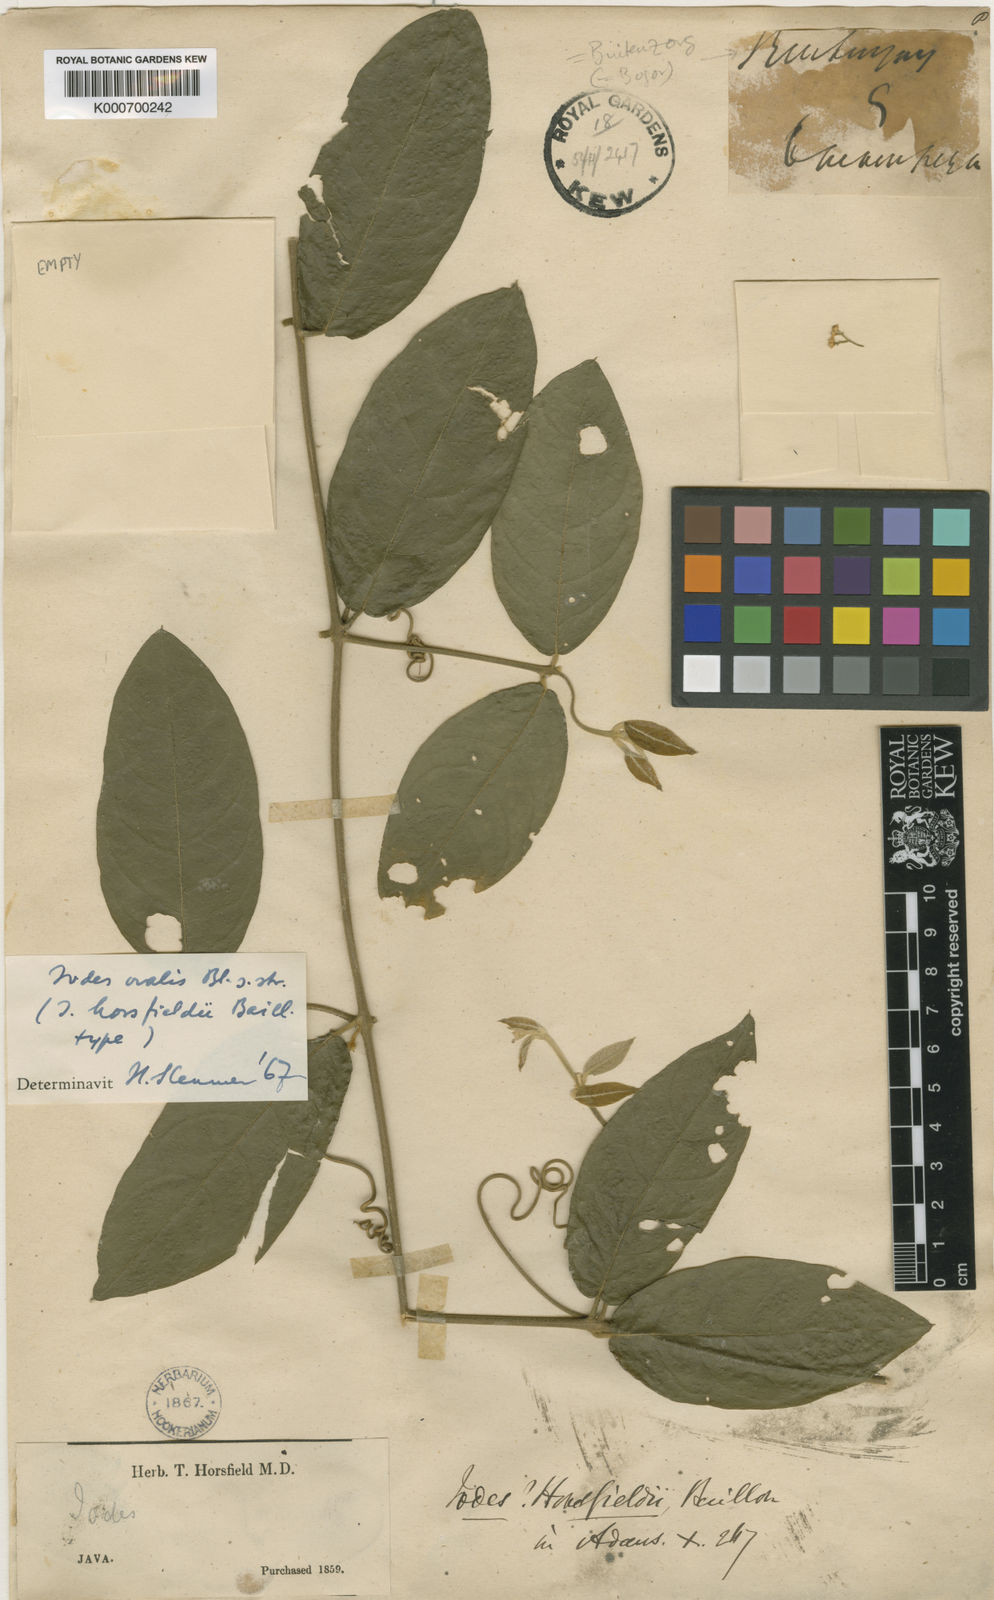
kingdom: Plantae
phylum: Tracheophyta
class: Magnoliopsida
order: Icacinales
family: Icacinaceae
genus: Iodes
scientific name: Iodes ovalis
